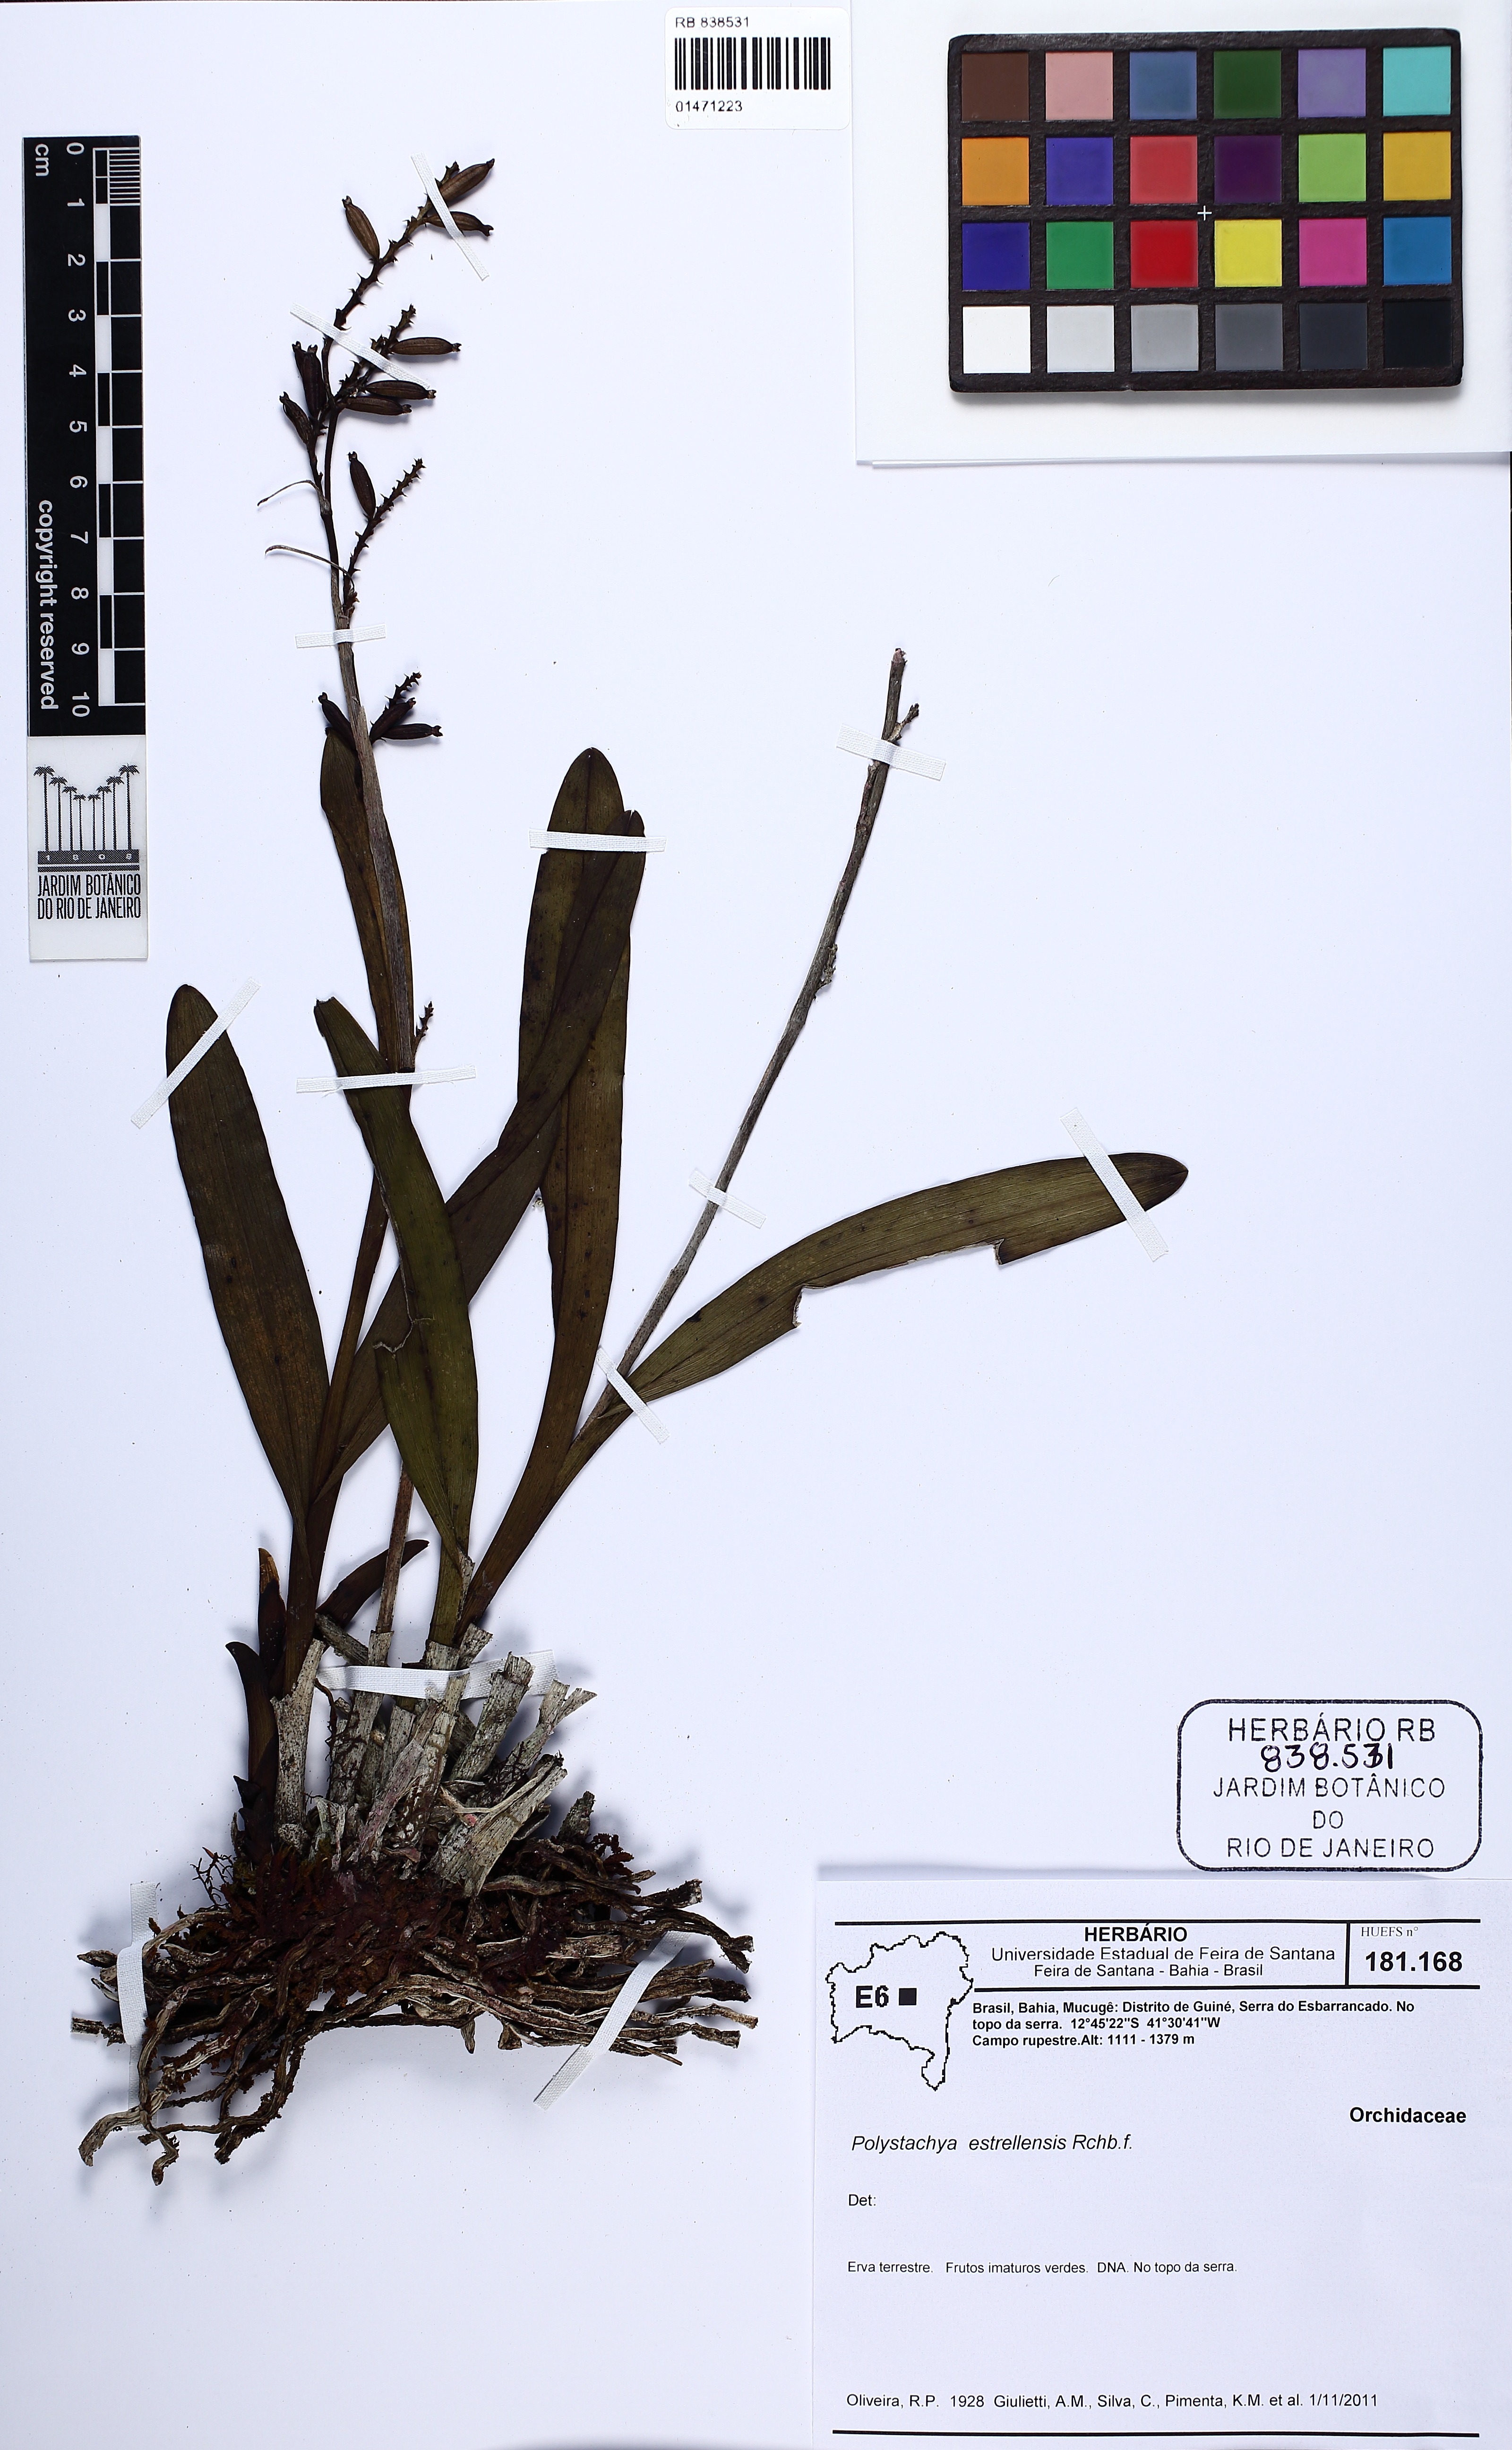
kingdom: Plantae
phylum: Tracheophyta
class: Liliopsida
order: Asparagales
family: Orchidaceae
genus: Polystachya
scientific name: Polystachya foliosa
